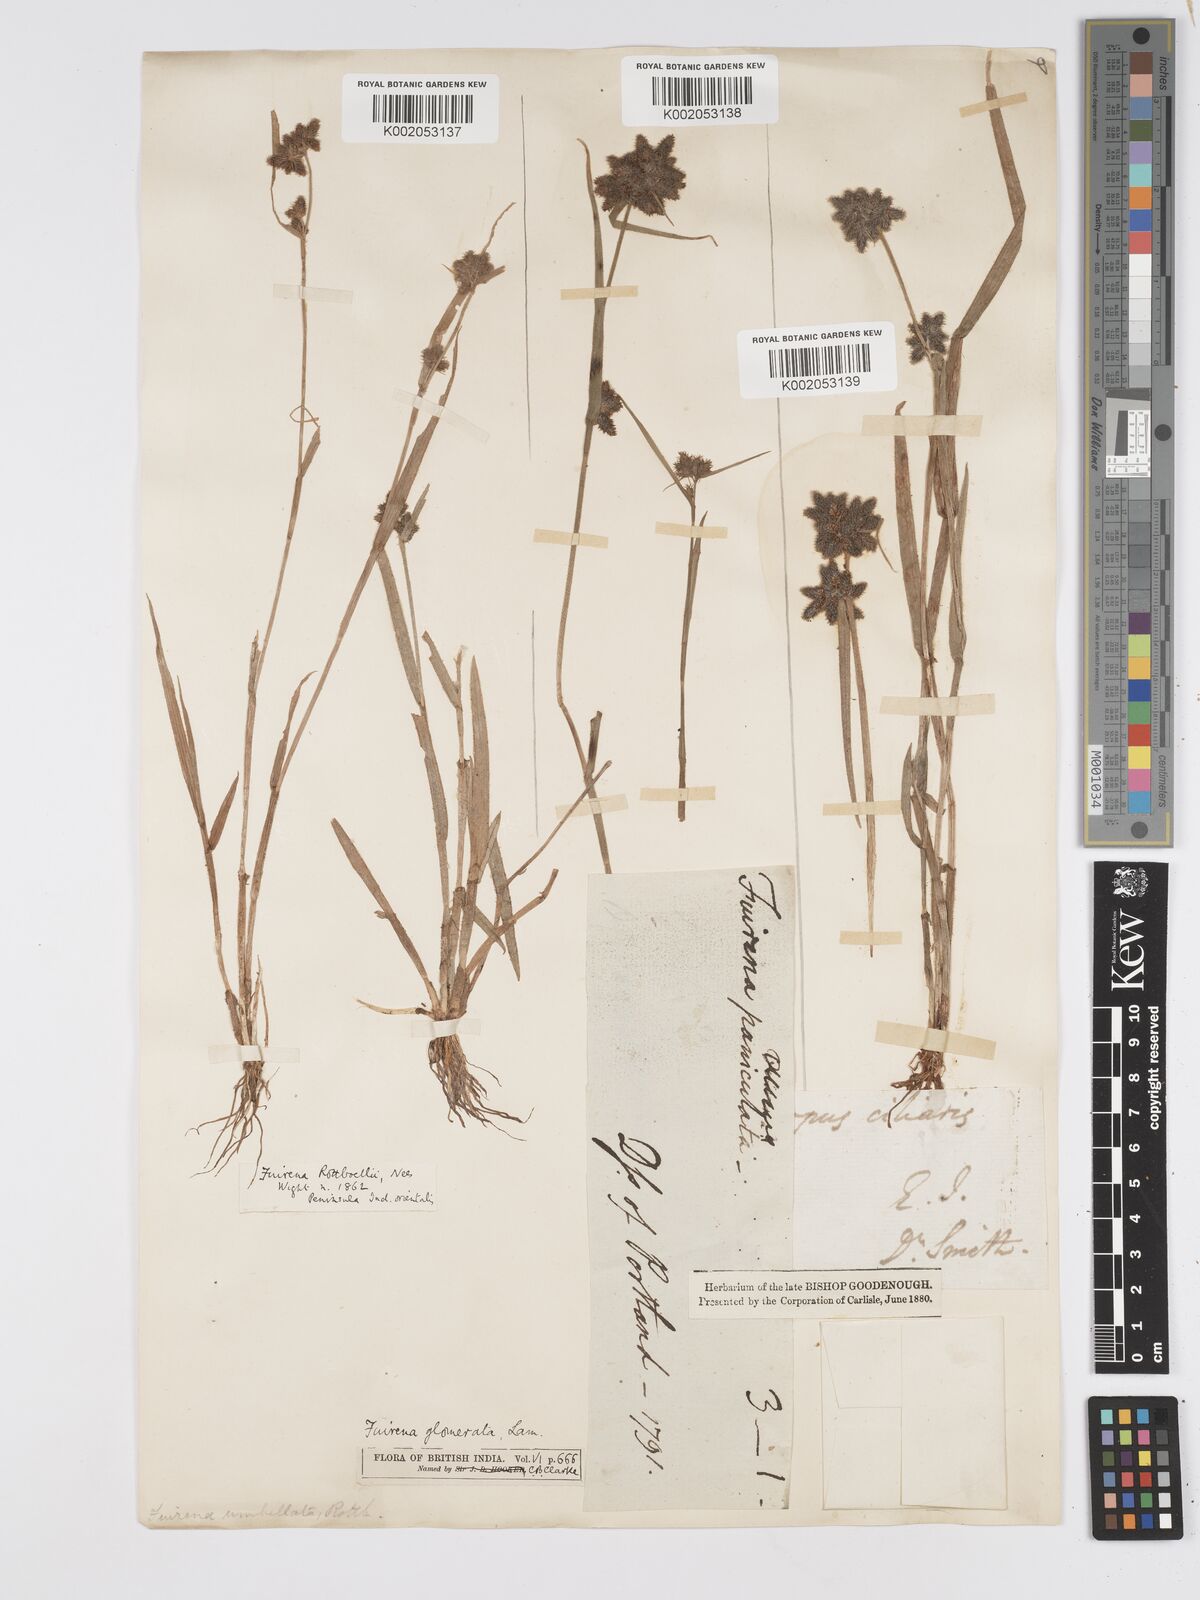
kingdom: Plantae
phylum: Tracheophyta
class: Liliopsida
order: Poales
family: Cyperaceae
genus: Fuirena
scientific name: Fuirena ciliaris
